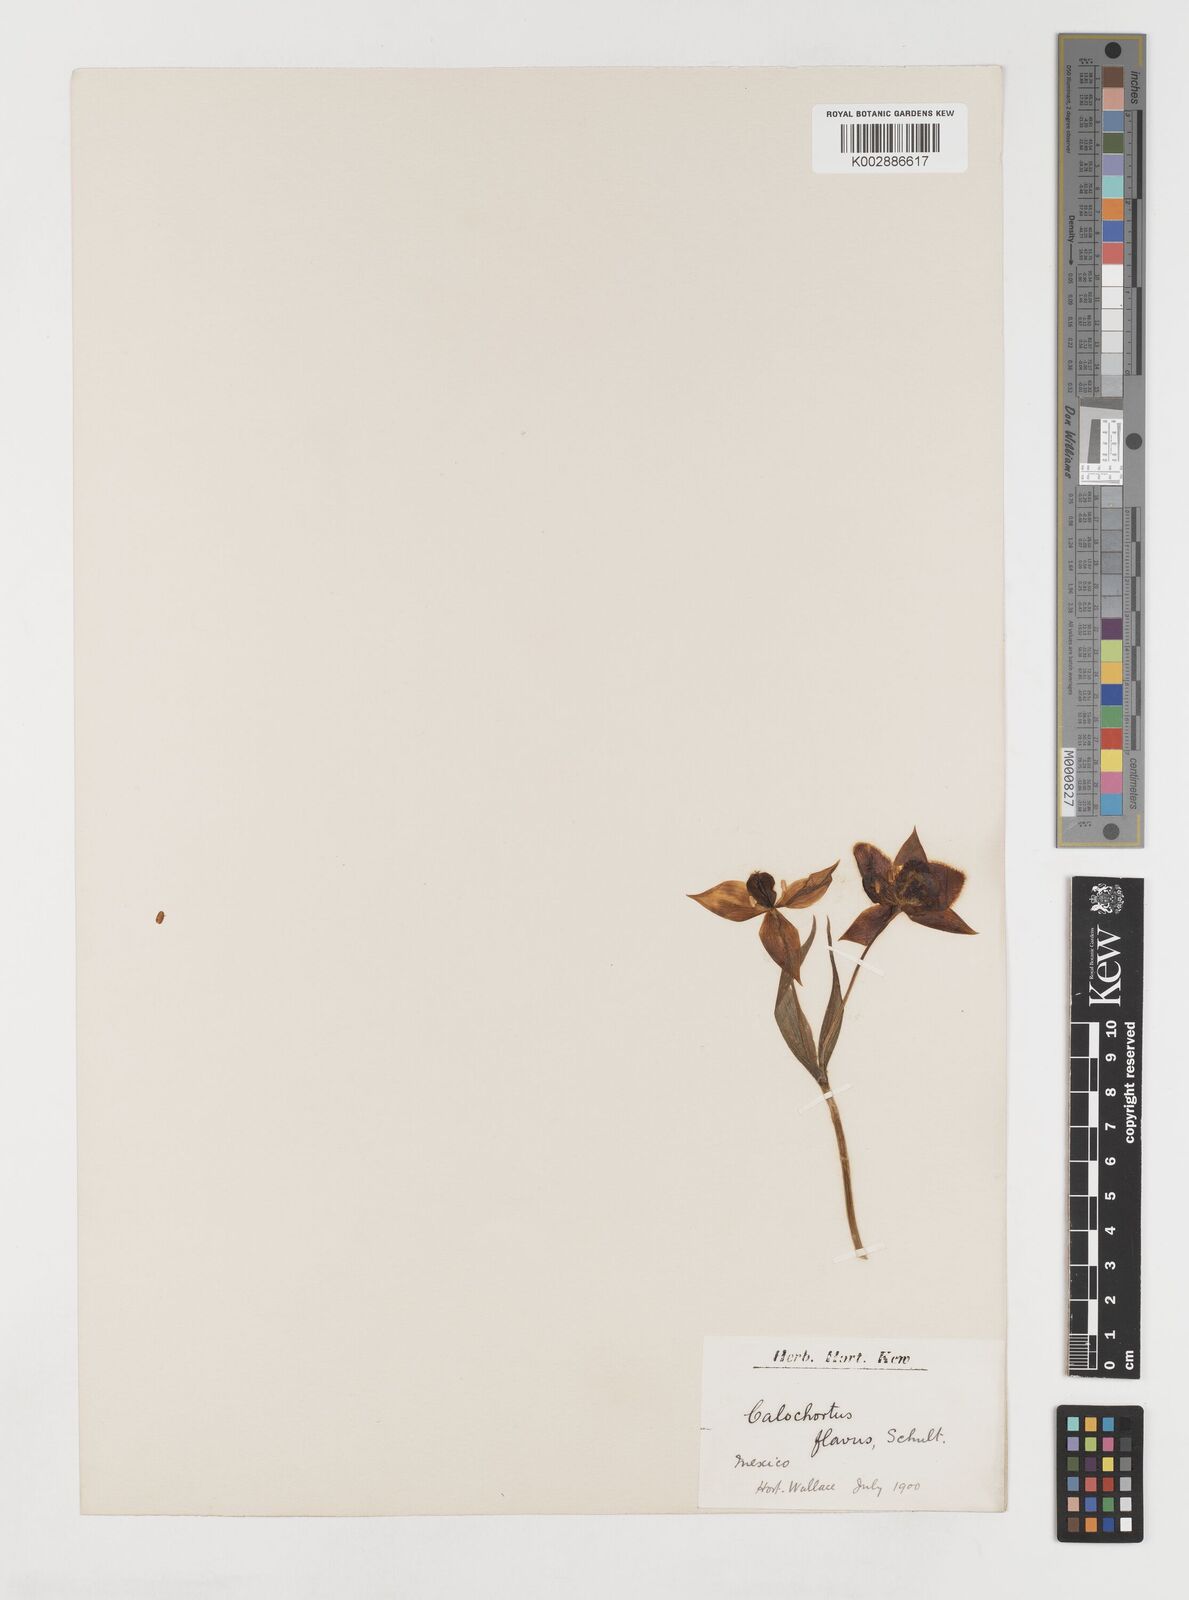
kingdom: Plantae
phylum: Tracheophyta
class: Liliopsida
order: Liliales
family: Liliaceae
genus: Calochortus
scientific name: Calochortus barbatus
